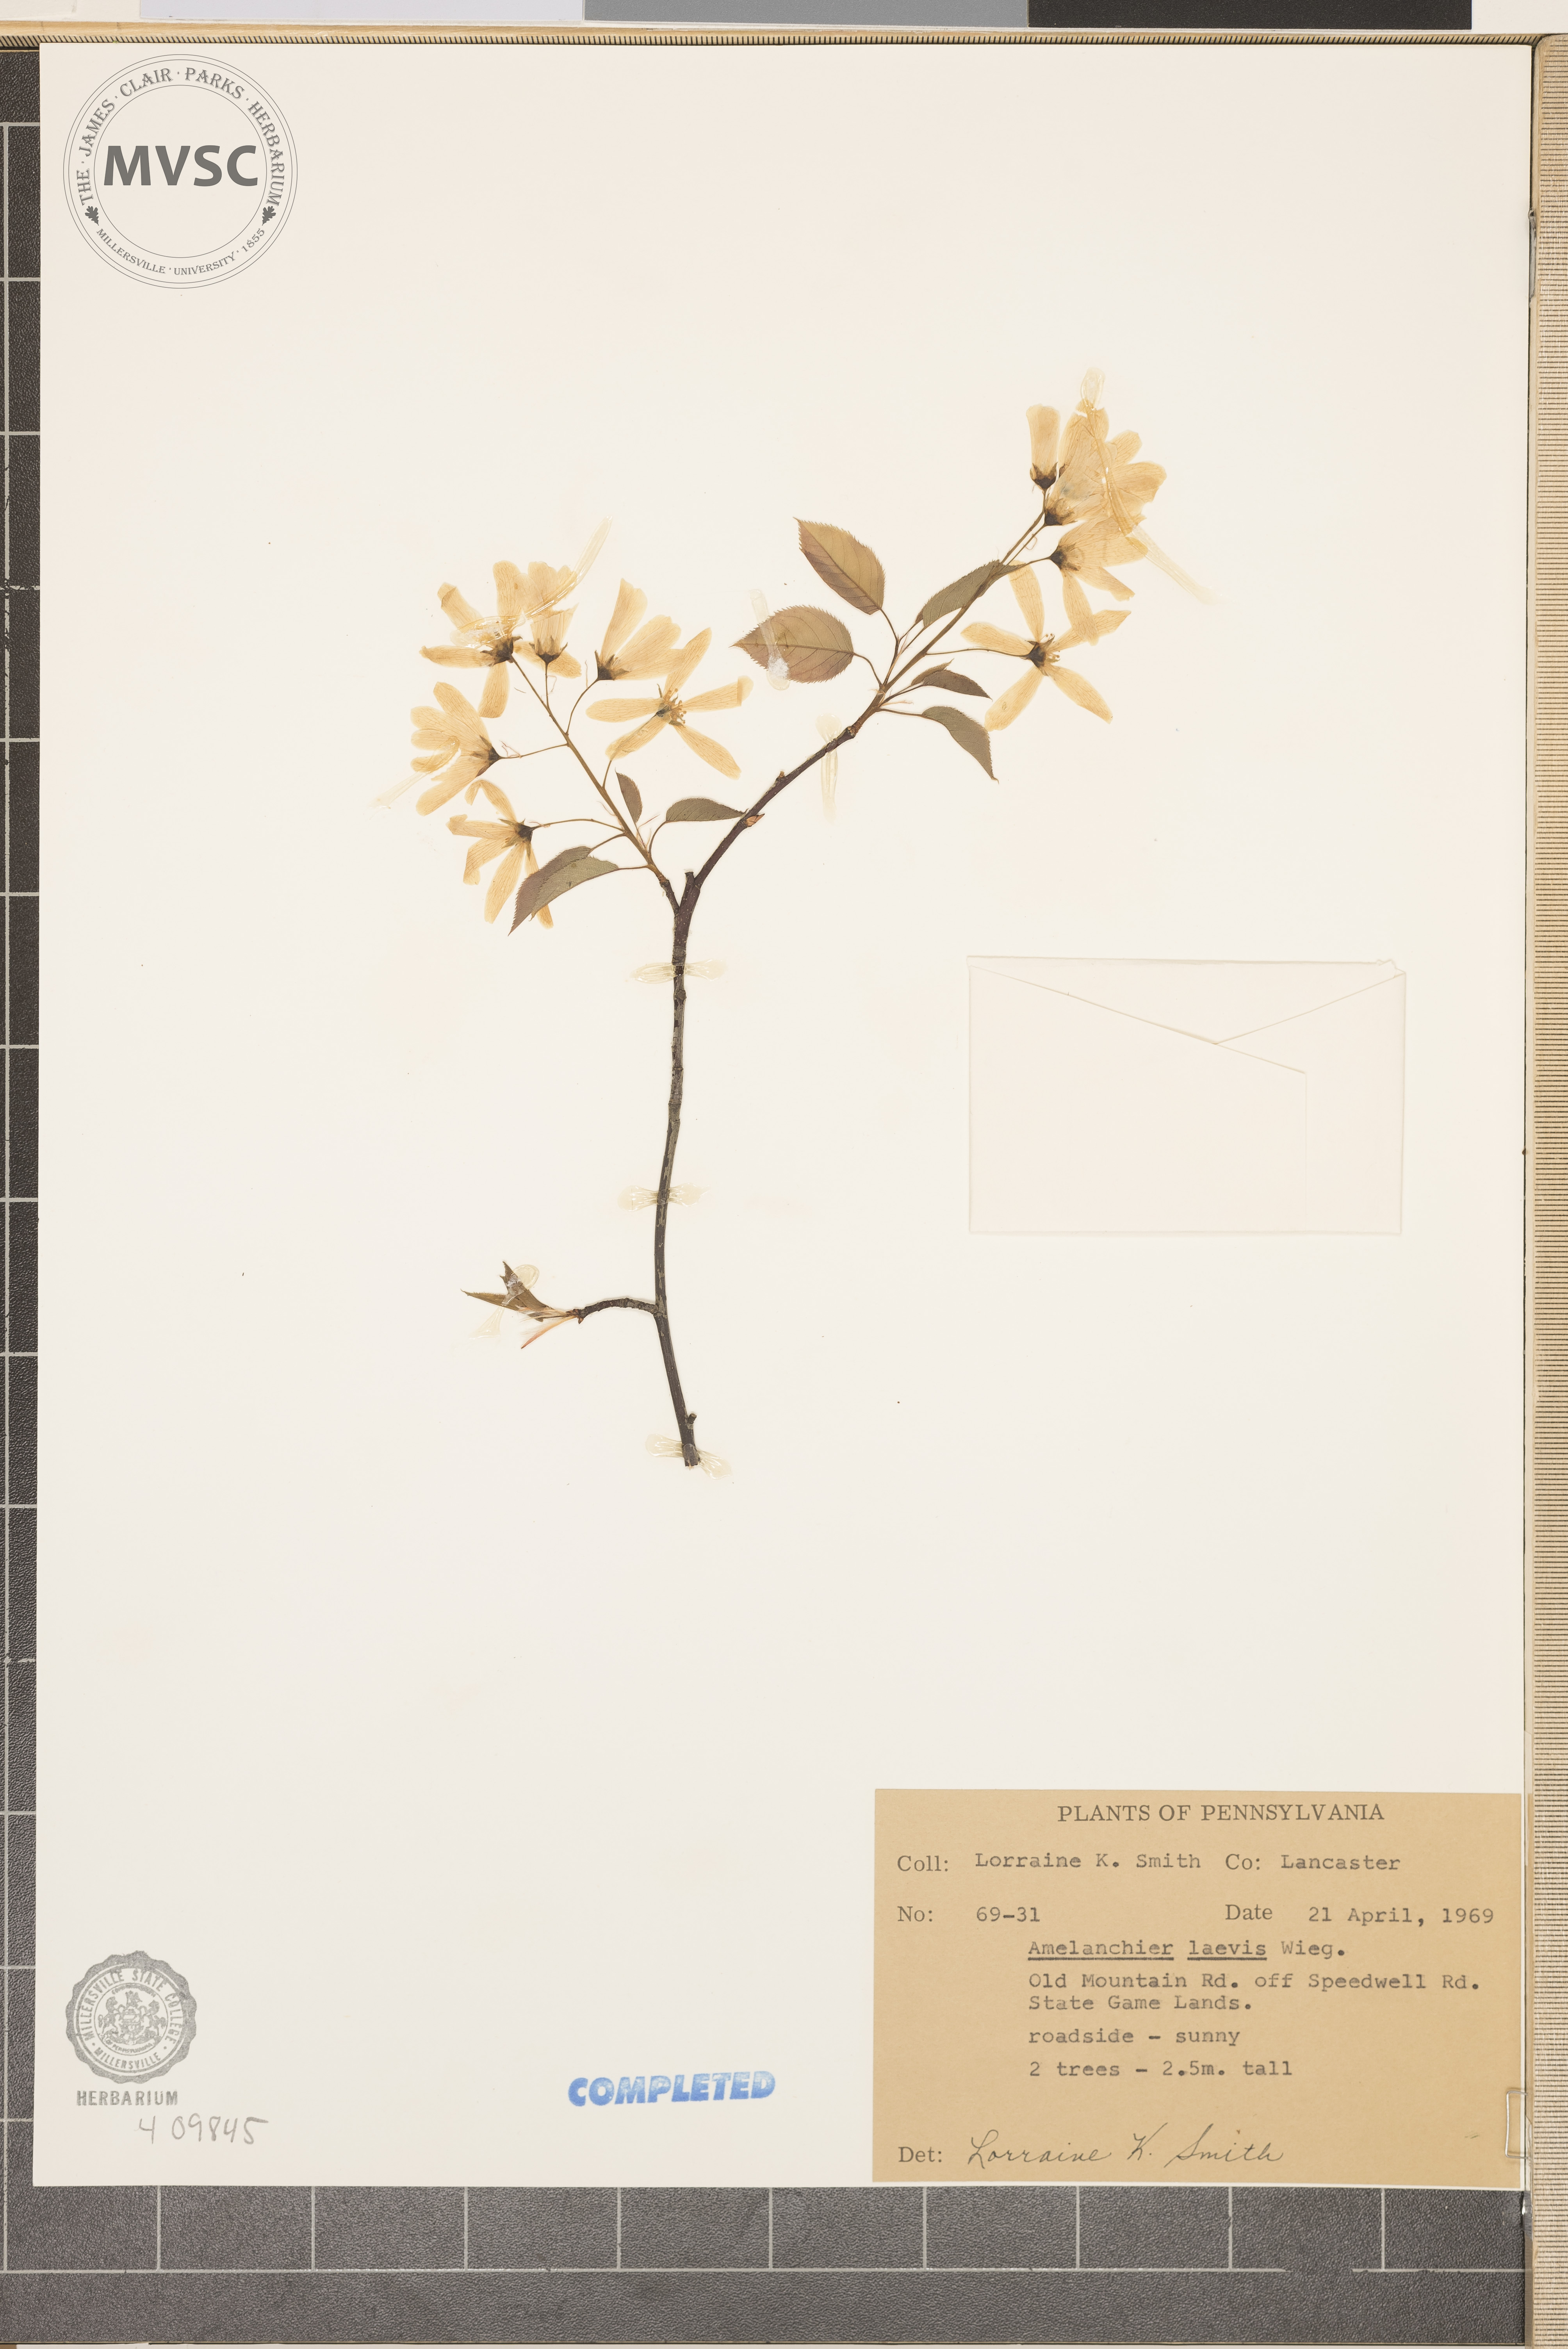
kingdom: Plantae
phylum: Tracheophyta
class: Magnoliopsida
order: Rosales
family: Rosaceae
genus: Amelanchier
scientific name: Amelanchier laevis
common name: Allegheny serviceberry
